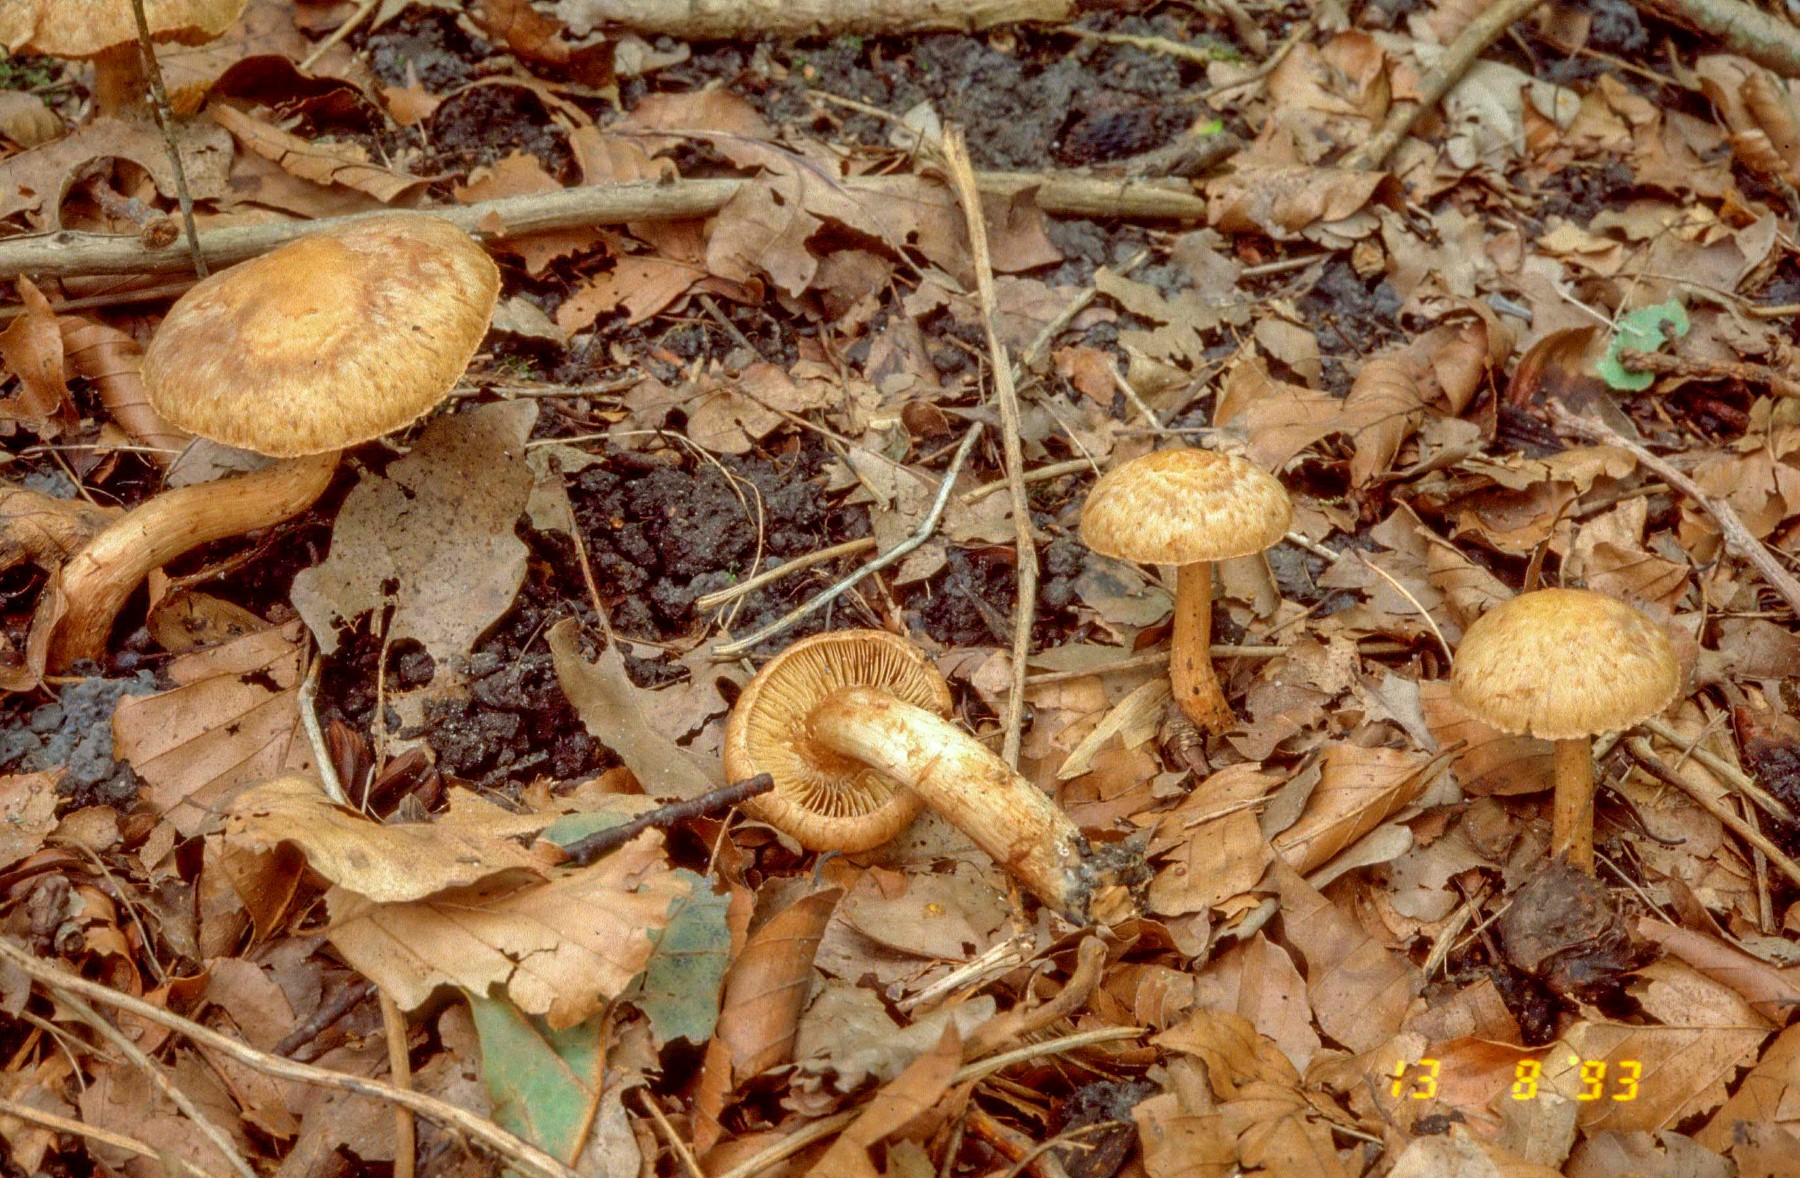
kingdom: Fungi
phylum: Basidiomycota
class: Agaricomycetes
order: Agaricales
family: Inocybaceae
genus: Inosperma
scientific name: Inosperma bongardii
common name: Bongards trævlhat
